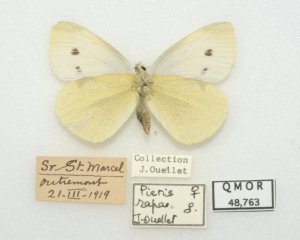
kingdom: Animalia
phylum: Arthropoda
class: Insecta
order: Lepidoptera
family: Pieridae
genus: Pieris
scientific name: Pieris rapae
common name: Cabbage White
